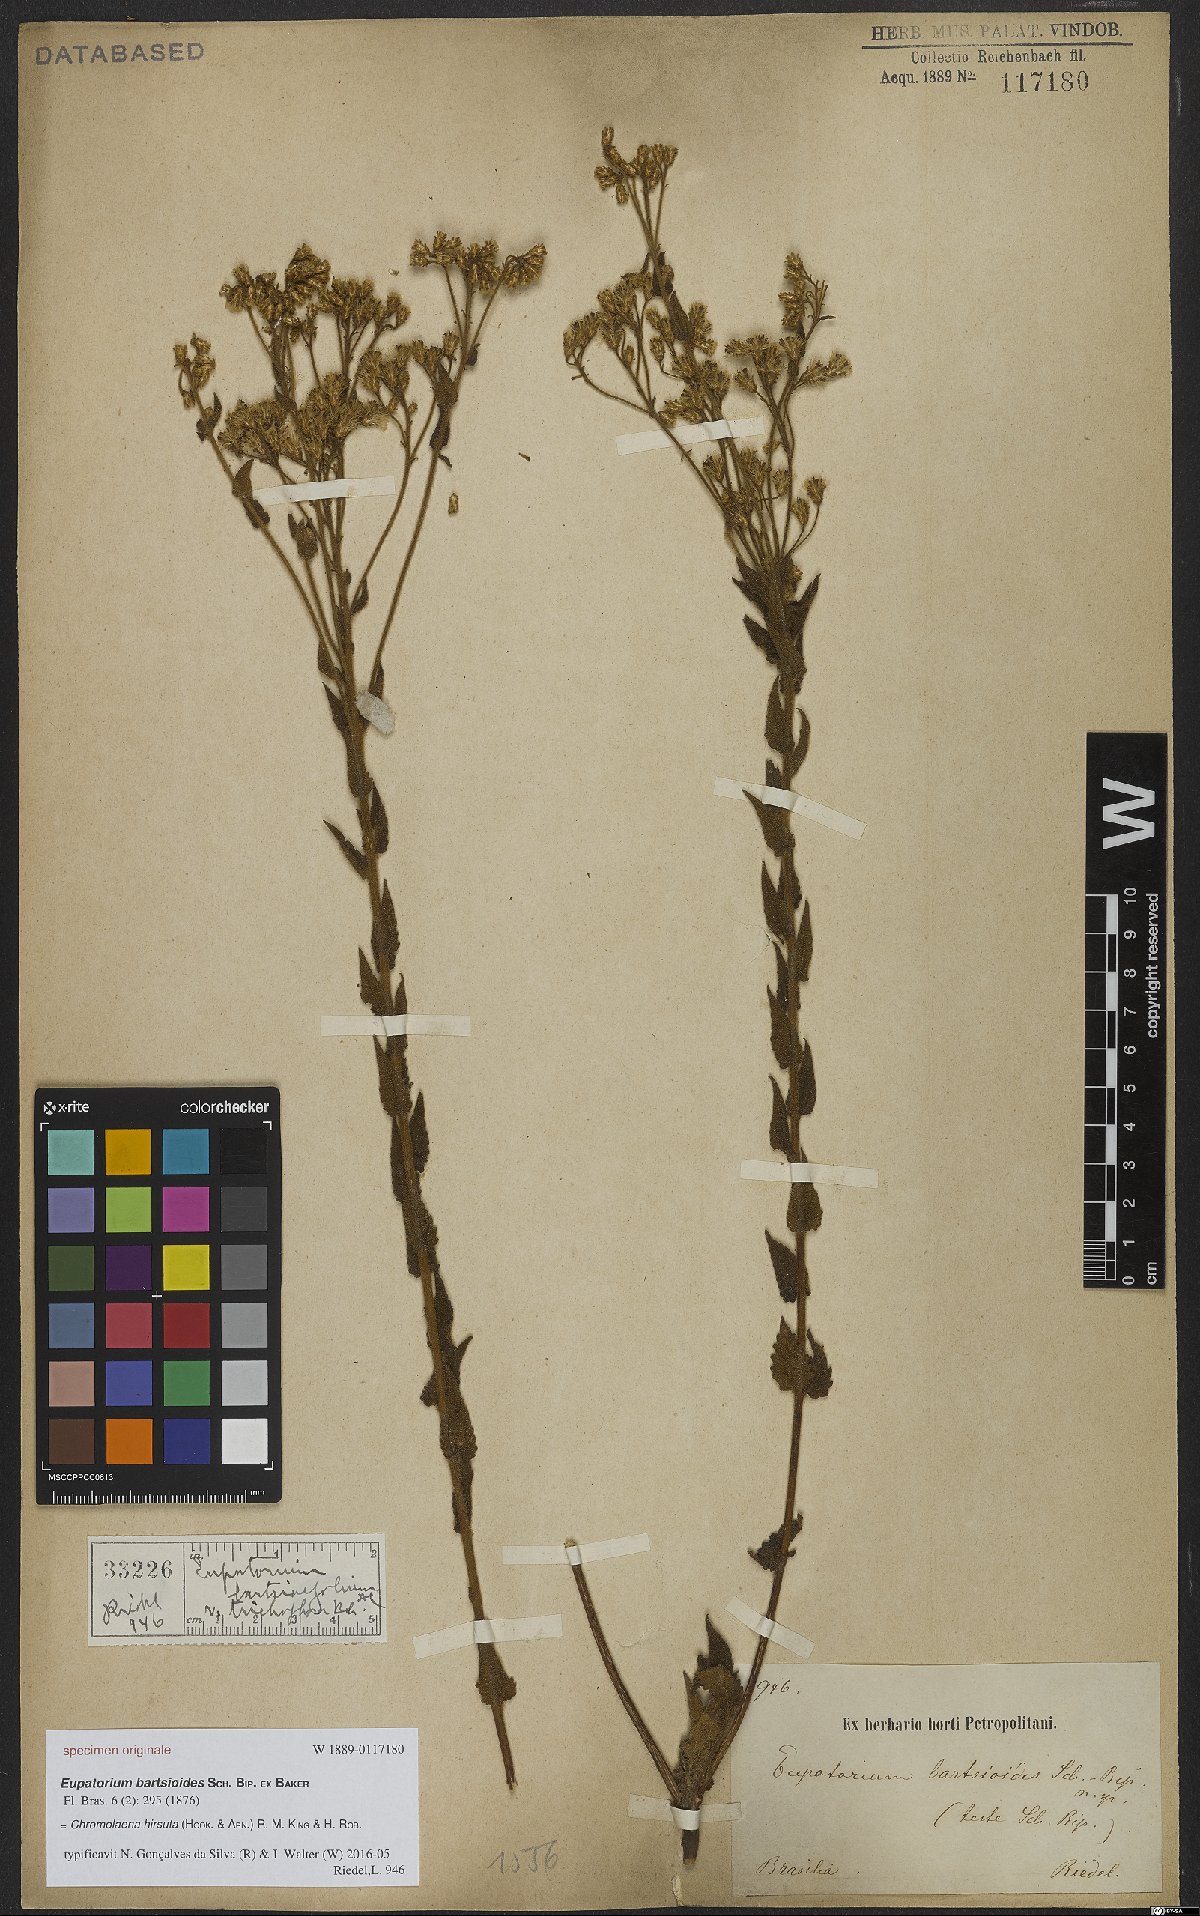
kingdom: Plantae
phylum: Tracheophyta
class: Magnoliopsida
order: Asterales
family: Asteraceae
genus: Chromolaena
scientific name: Chromolaena hirsuta
